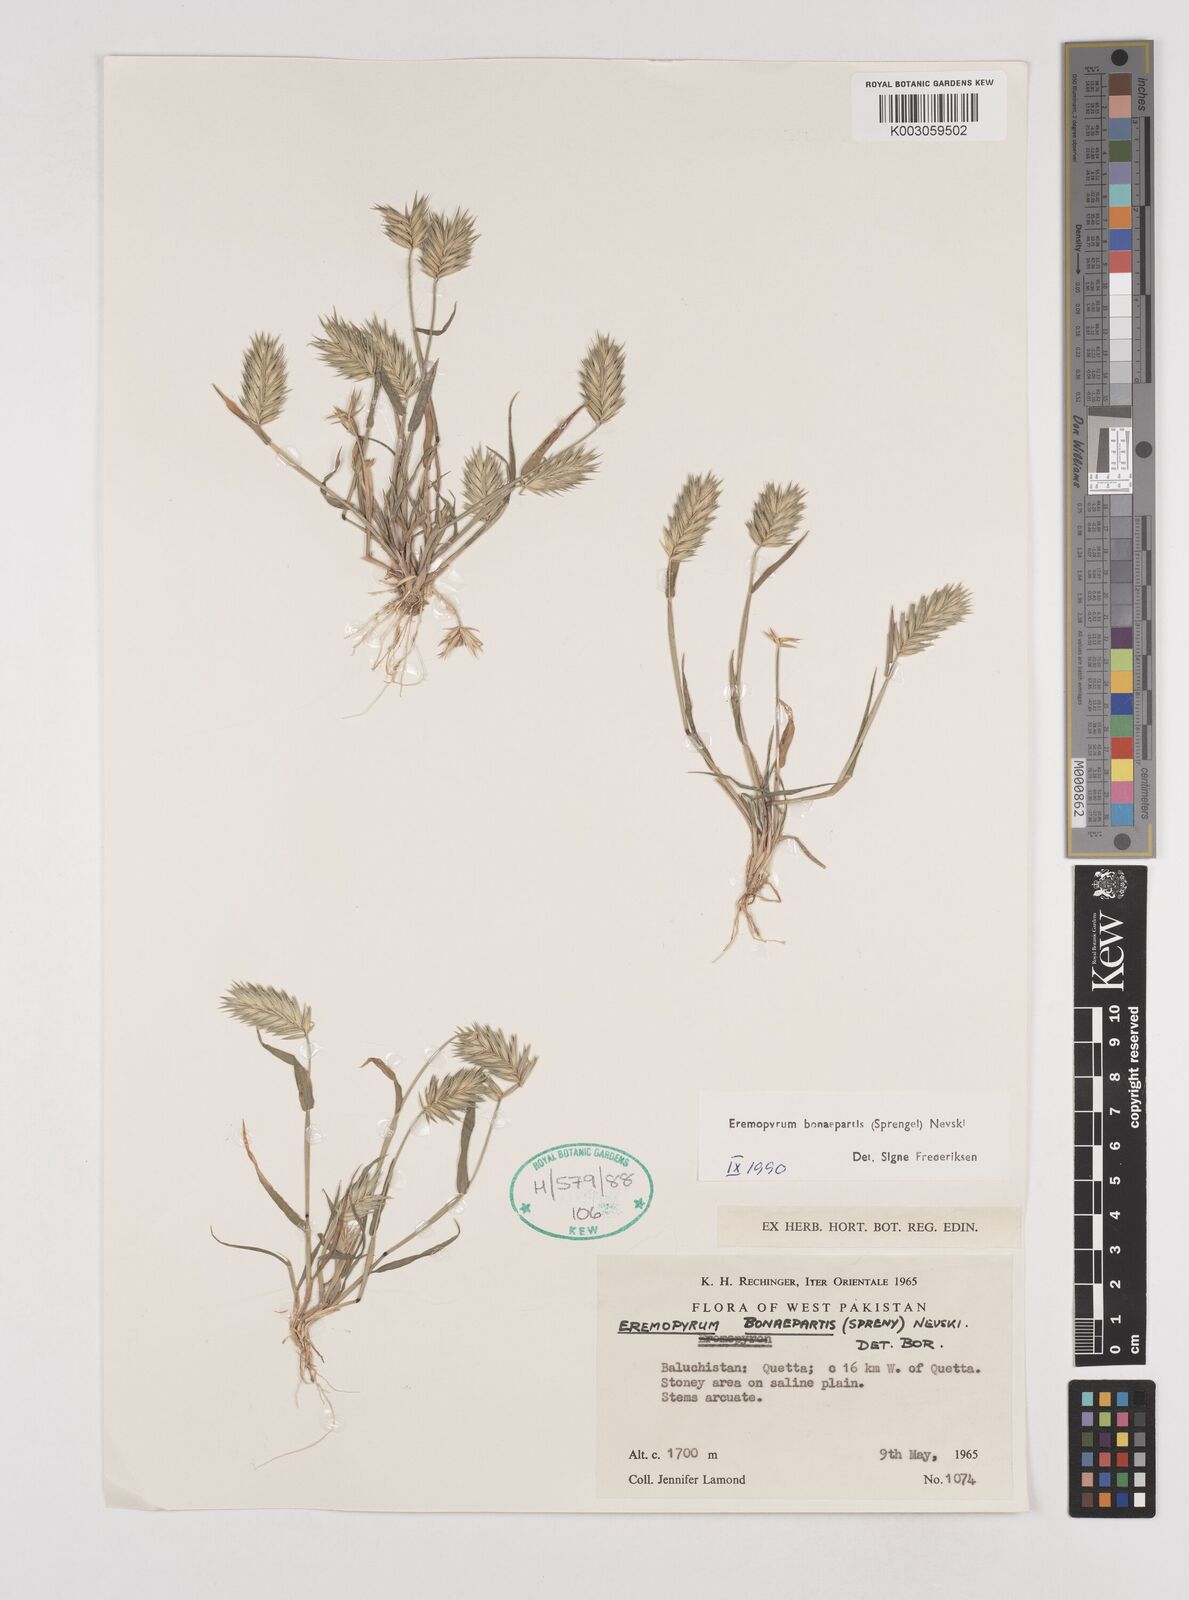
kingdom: Plantae
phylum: Tracheophyta
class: Liliopsida
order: Poales
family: Poaceae
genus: Eremopyrum
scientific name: Eremopyrum bonaepartis
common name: Tapertip false wheatgrass
